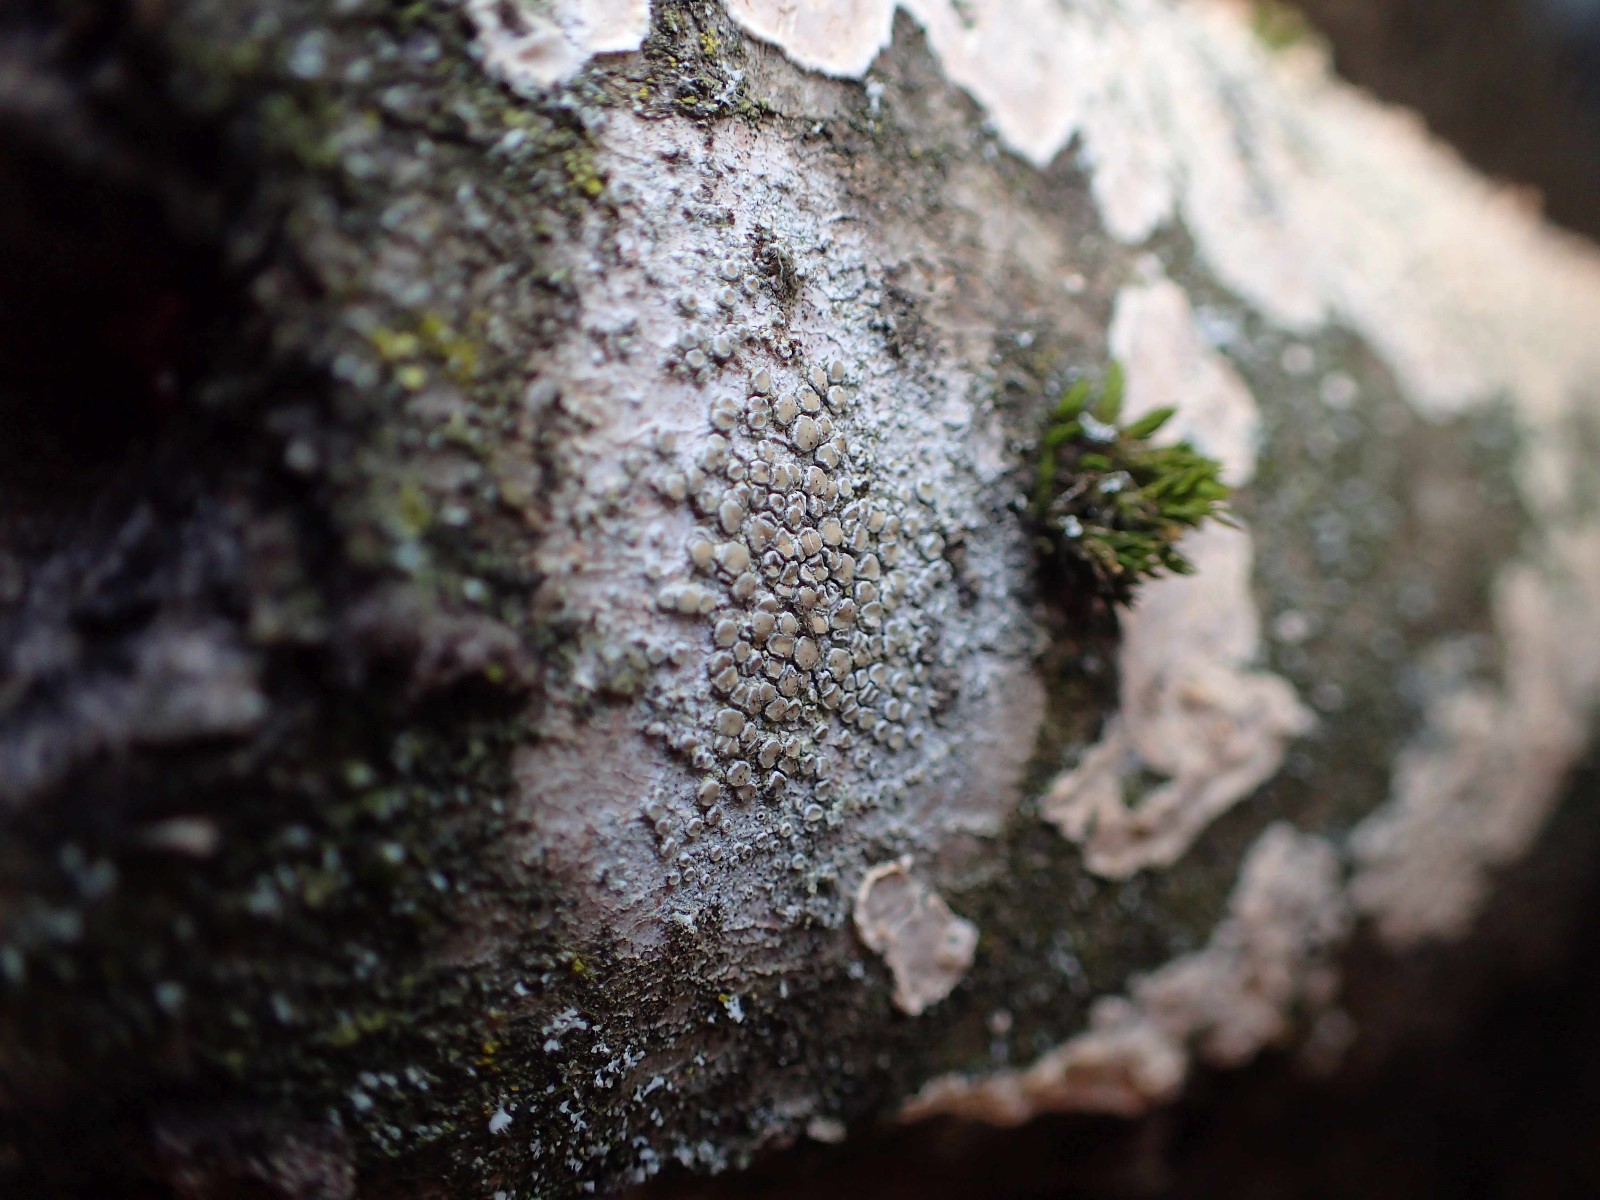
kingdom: Fungi
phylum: Ascomycota
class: Lecanoromycetes
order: Lecanorales
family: Lecanoraceae
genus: Lecanora
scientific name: Lecanora chlarotera
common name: brun kantskivelav
